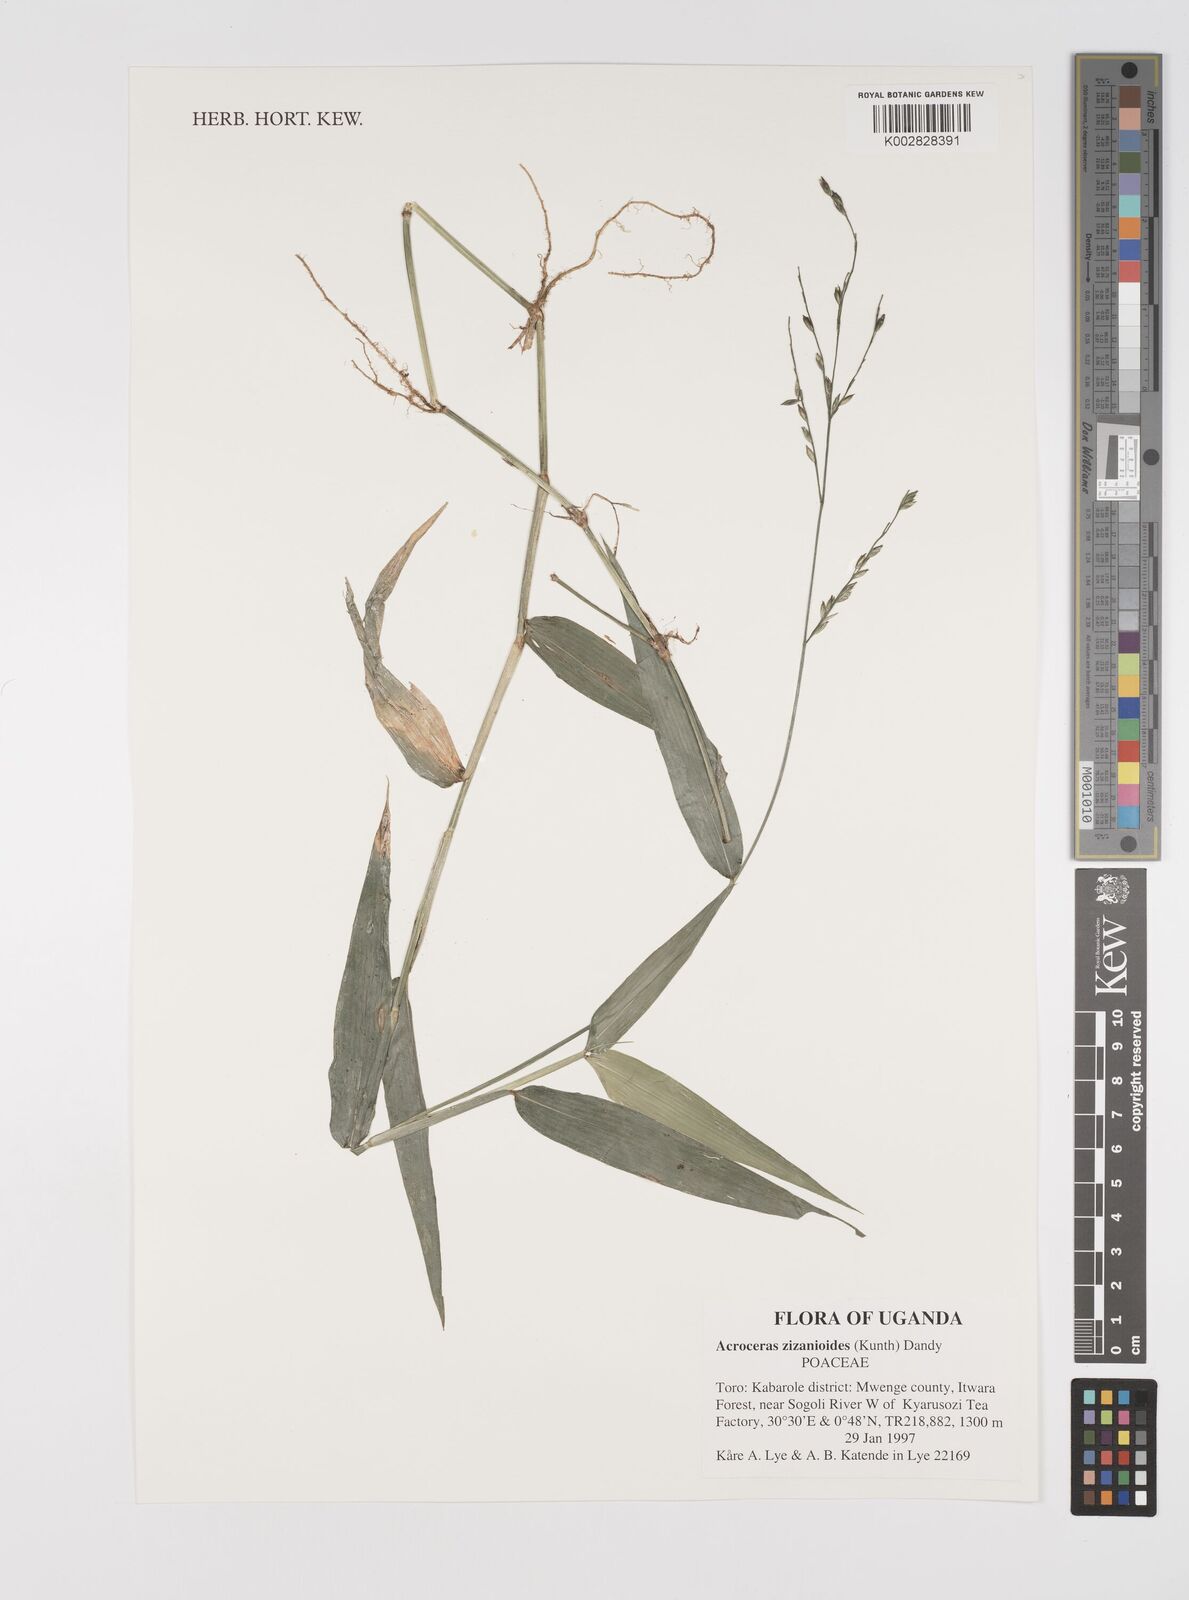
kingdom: Plantae
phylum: Tracheophyta
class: Liliopsida
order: Poales
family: Poaceae
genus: Acroceras
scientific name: Acroceras zizanioides
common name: Oat grass
